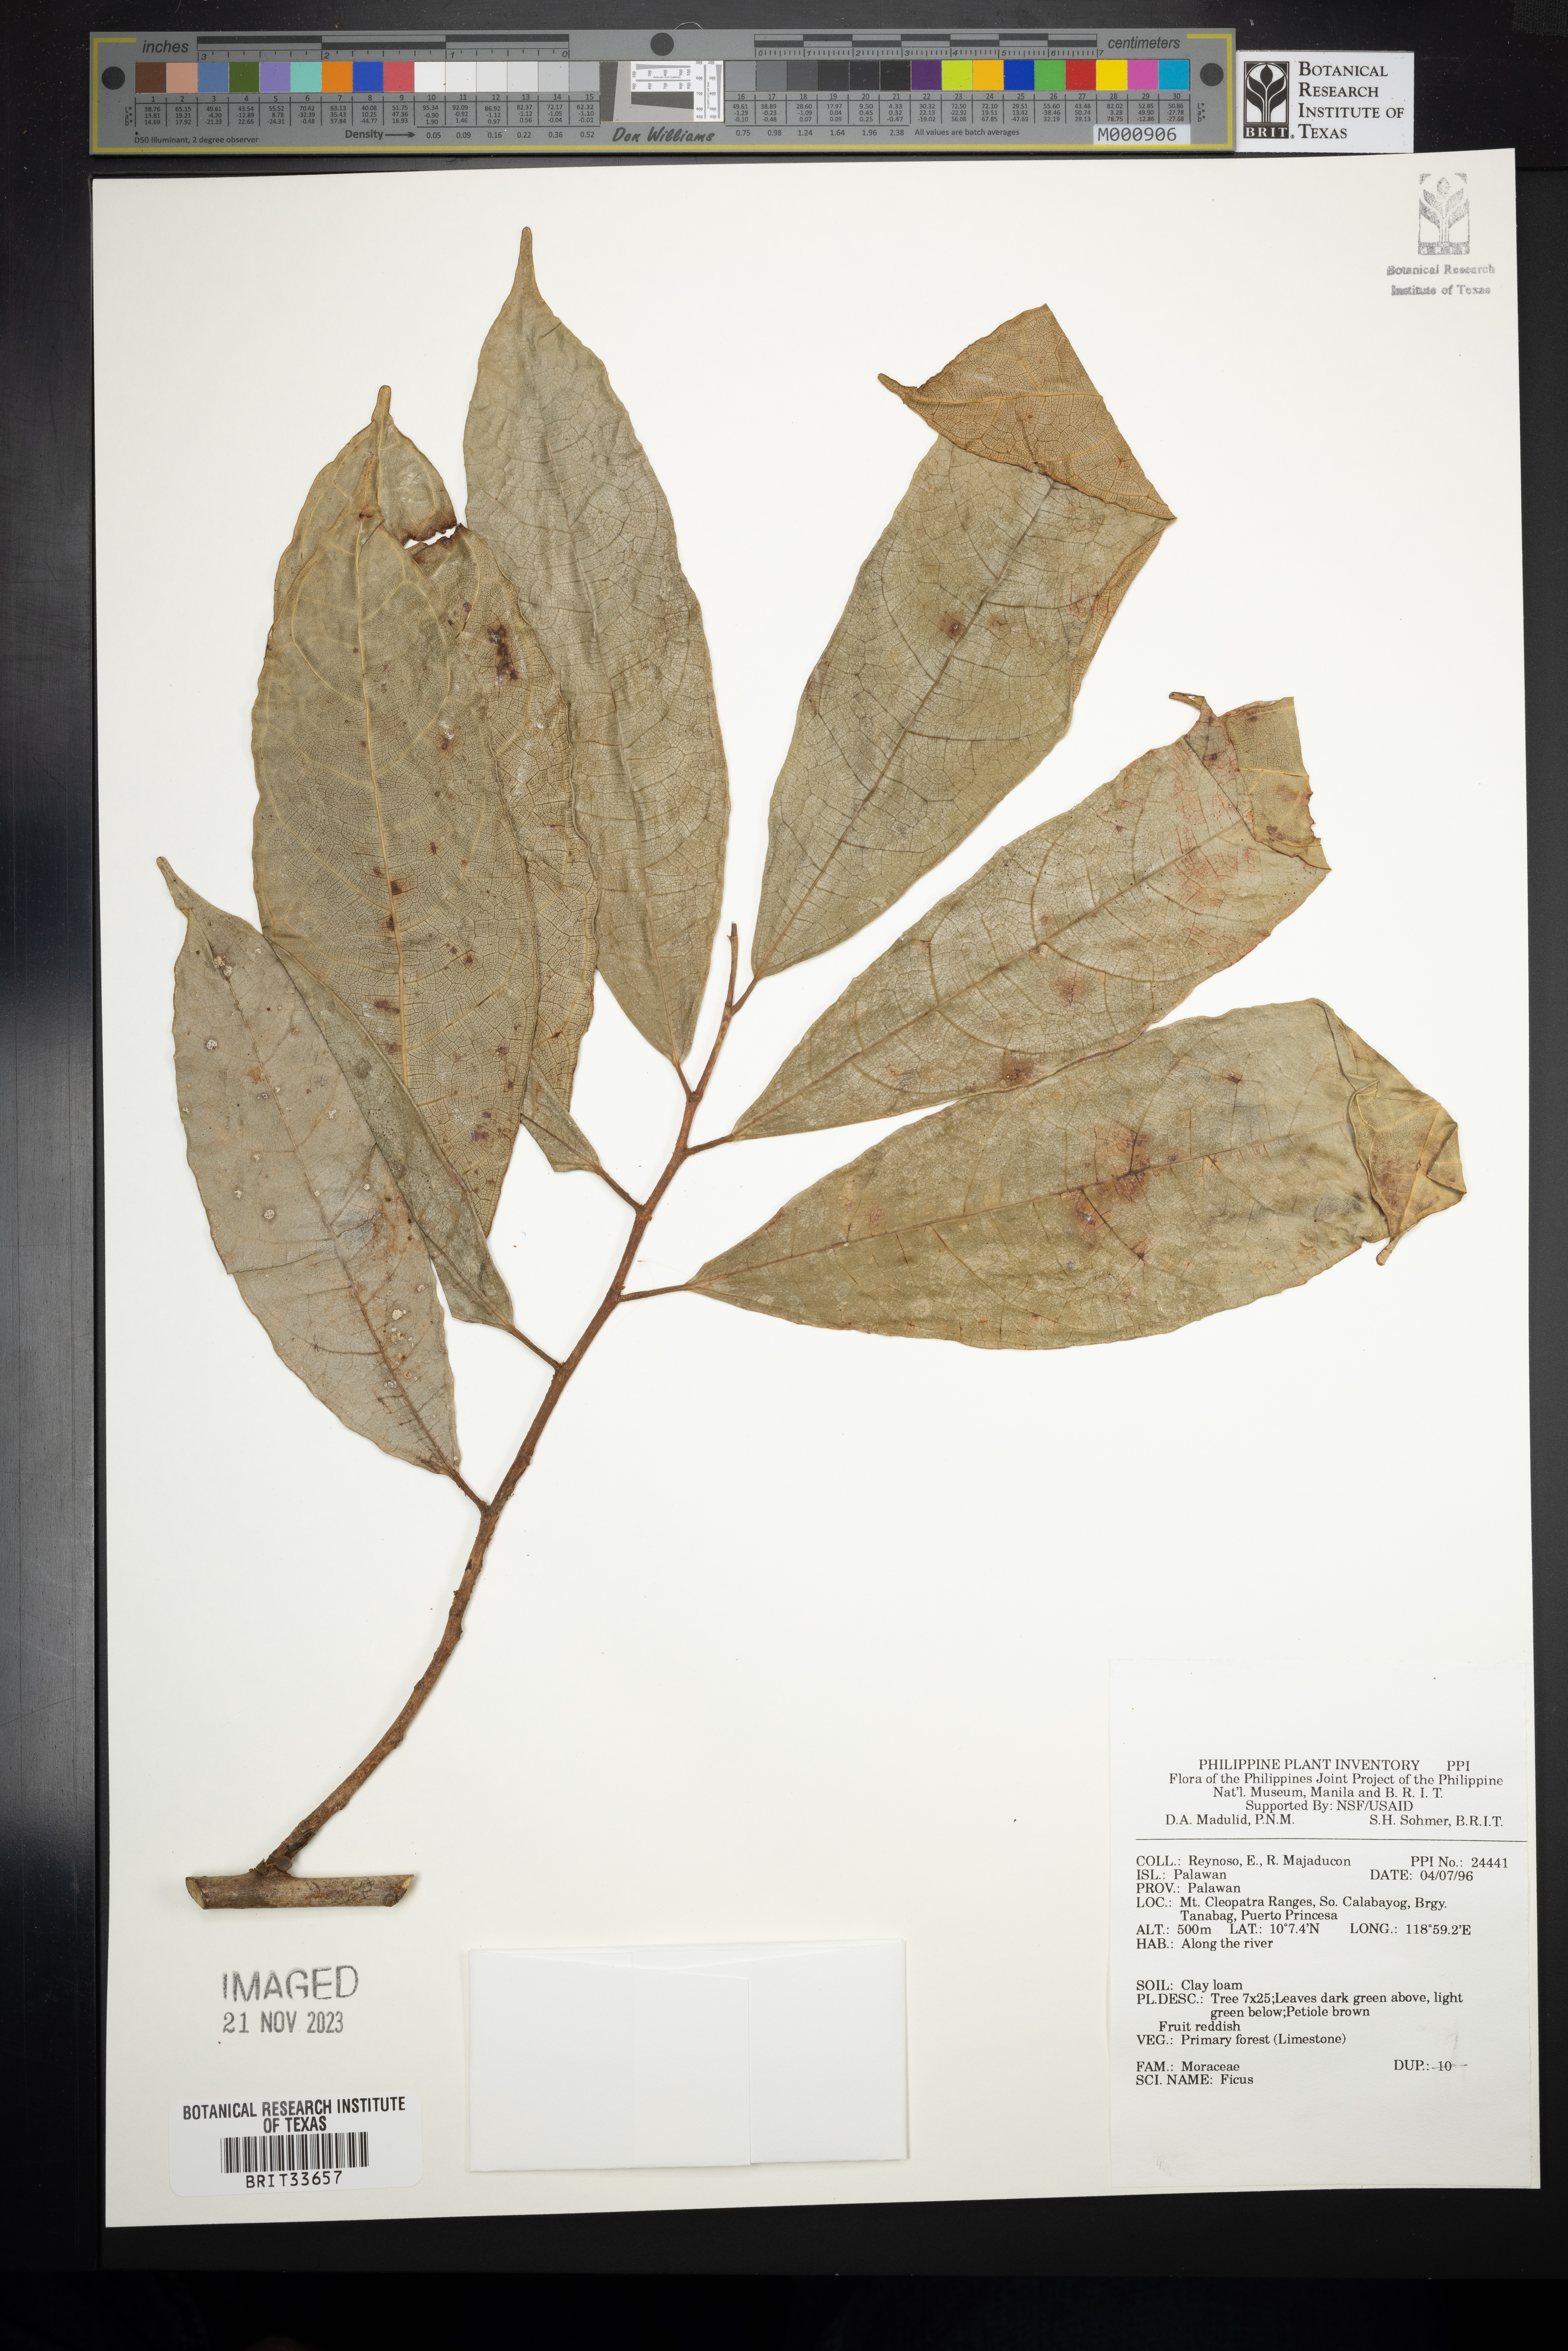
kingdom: Plantae
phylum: Tracheophyta
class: Magnoliopsida
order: Rosales
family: Moraceae
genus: Ficus
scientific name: Ficus
